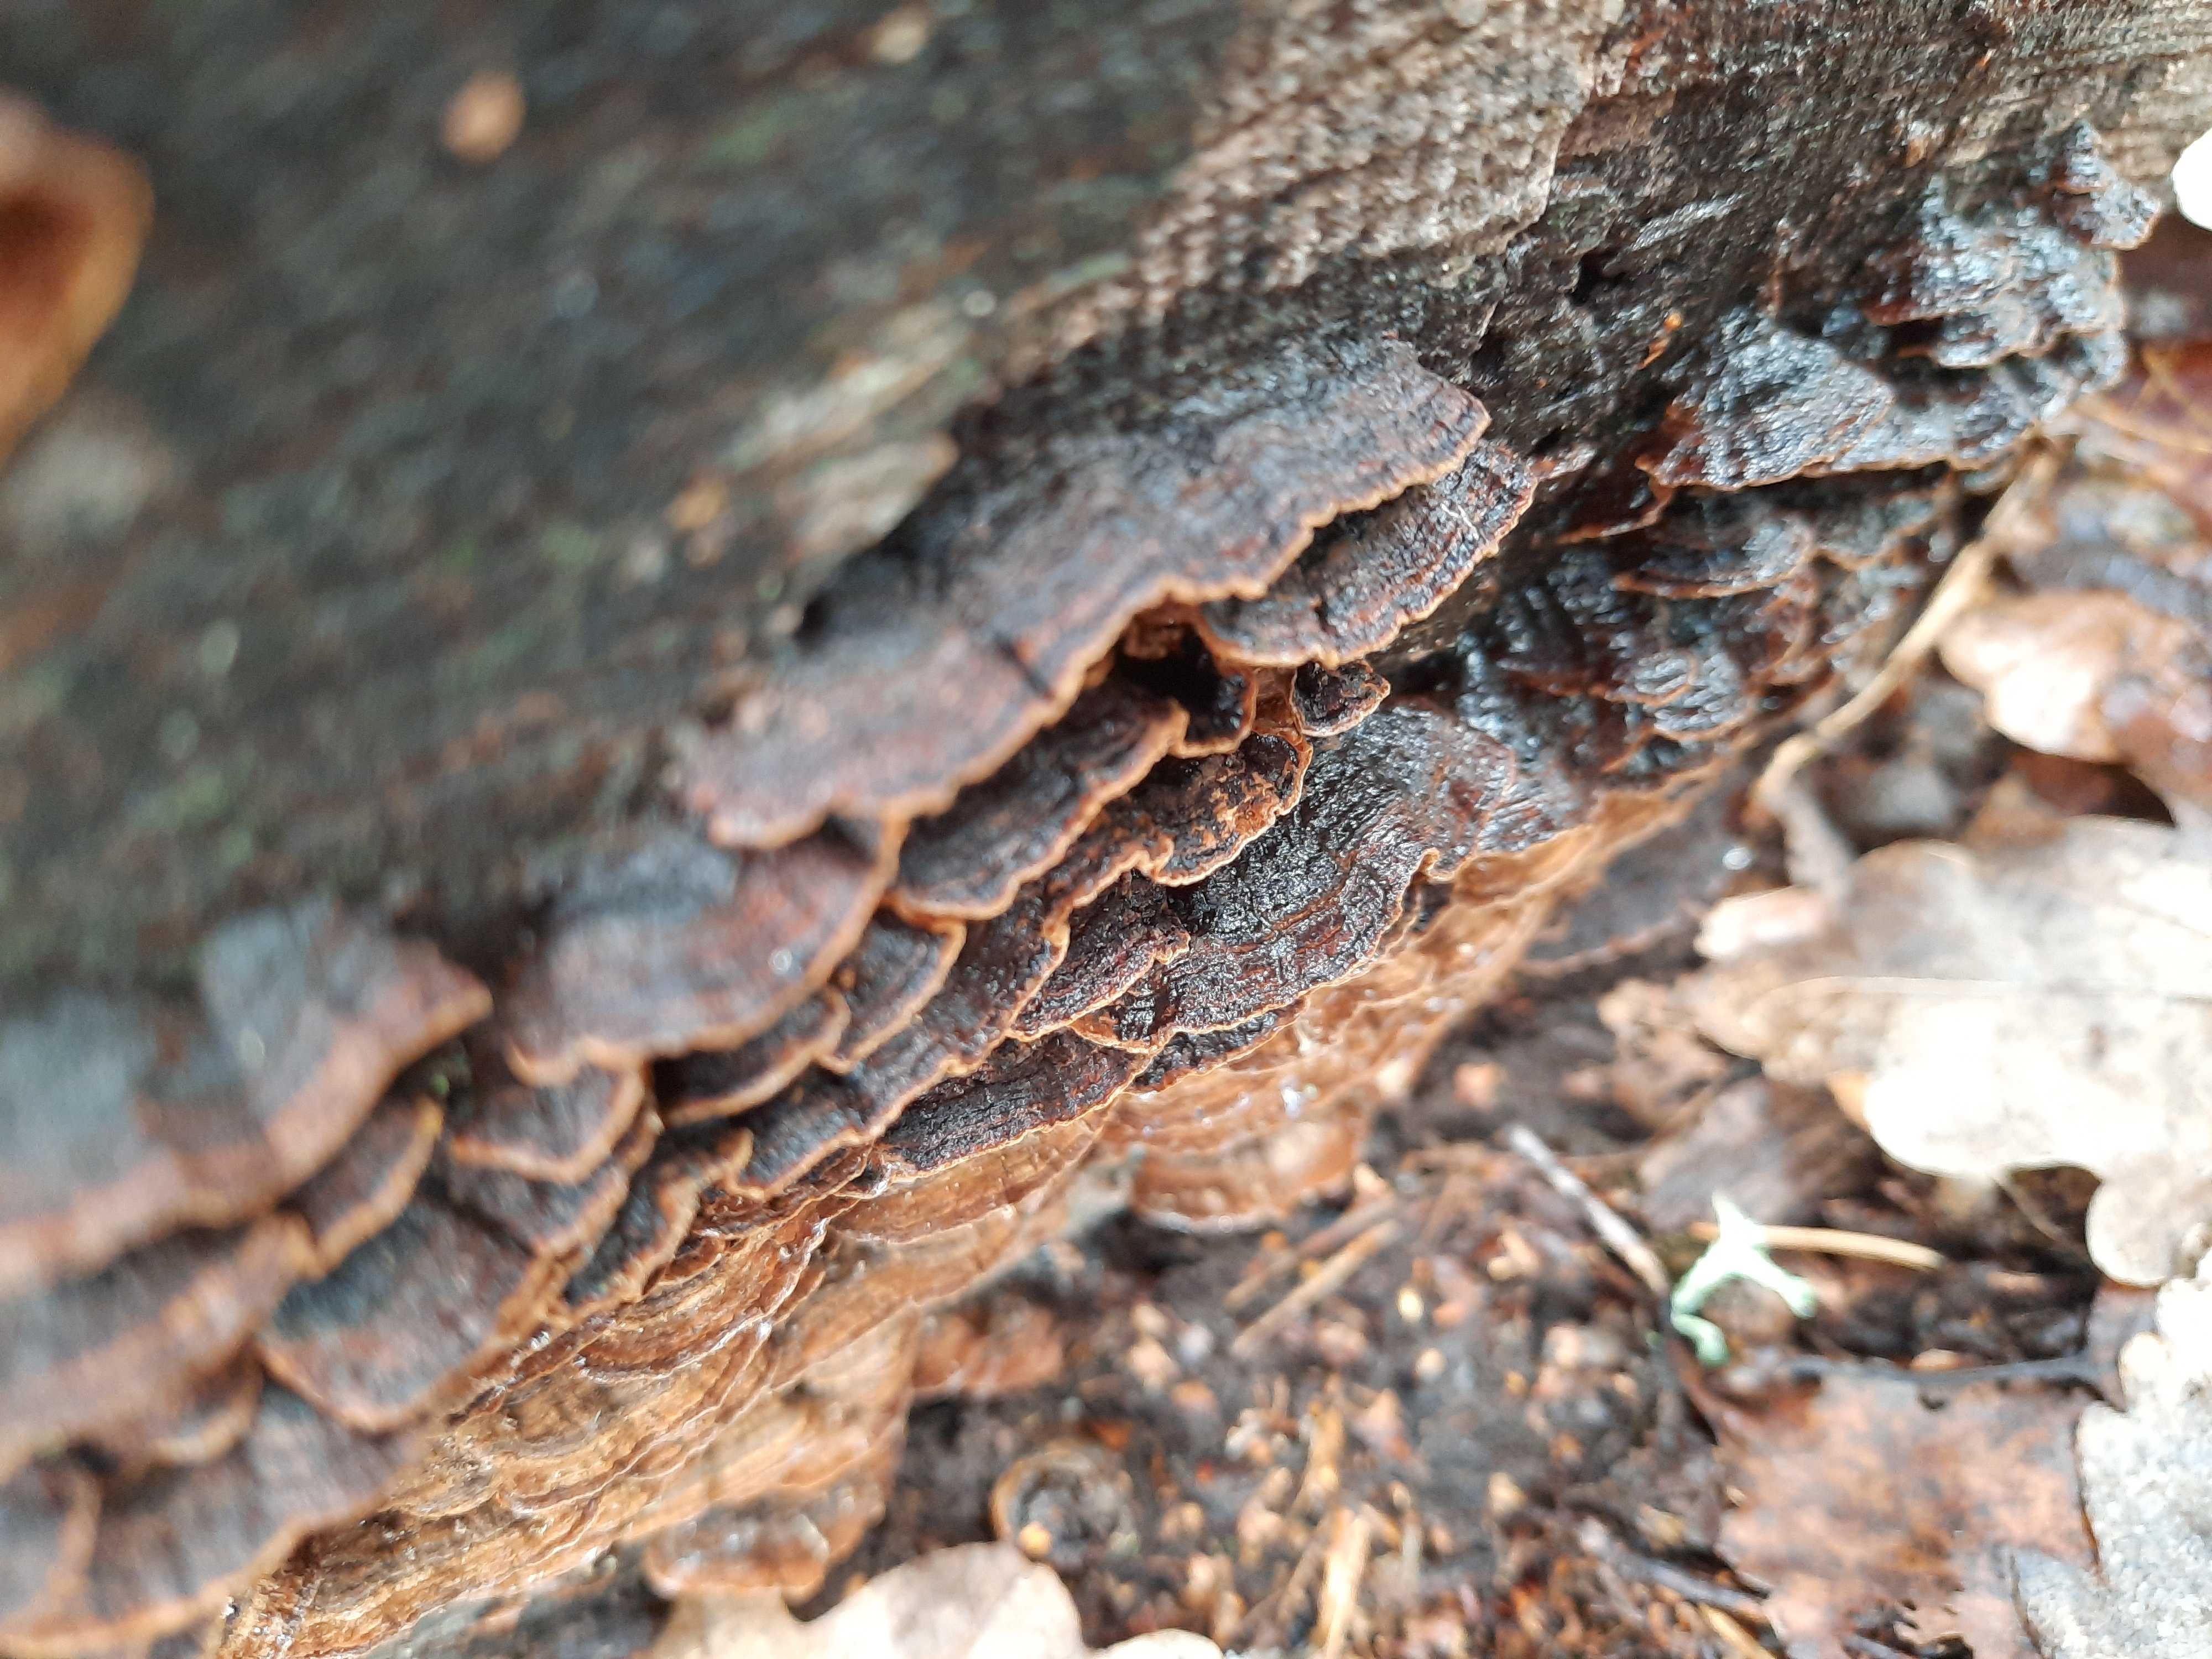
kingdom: Fungi
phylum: Basidiomycota
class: Agaricomycetes
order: Hymenochaetales
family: Hymenochaetaceae
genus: Hymenochaete
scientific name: Hymenochaete rubiginosa
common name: stiv ruslædersvamp
